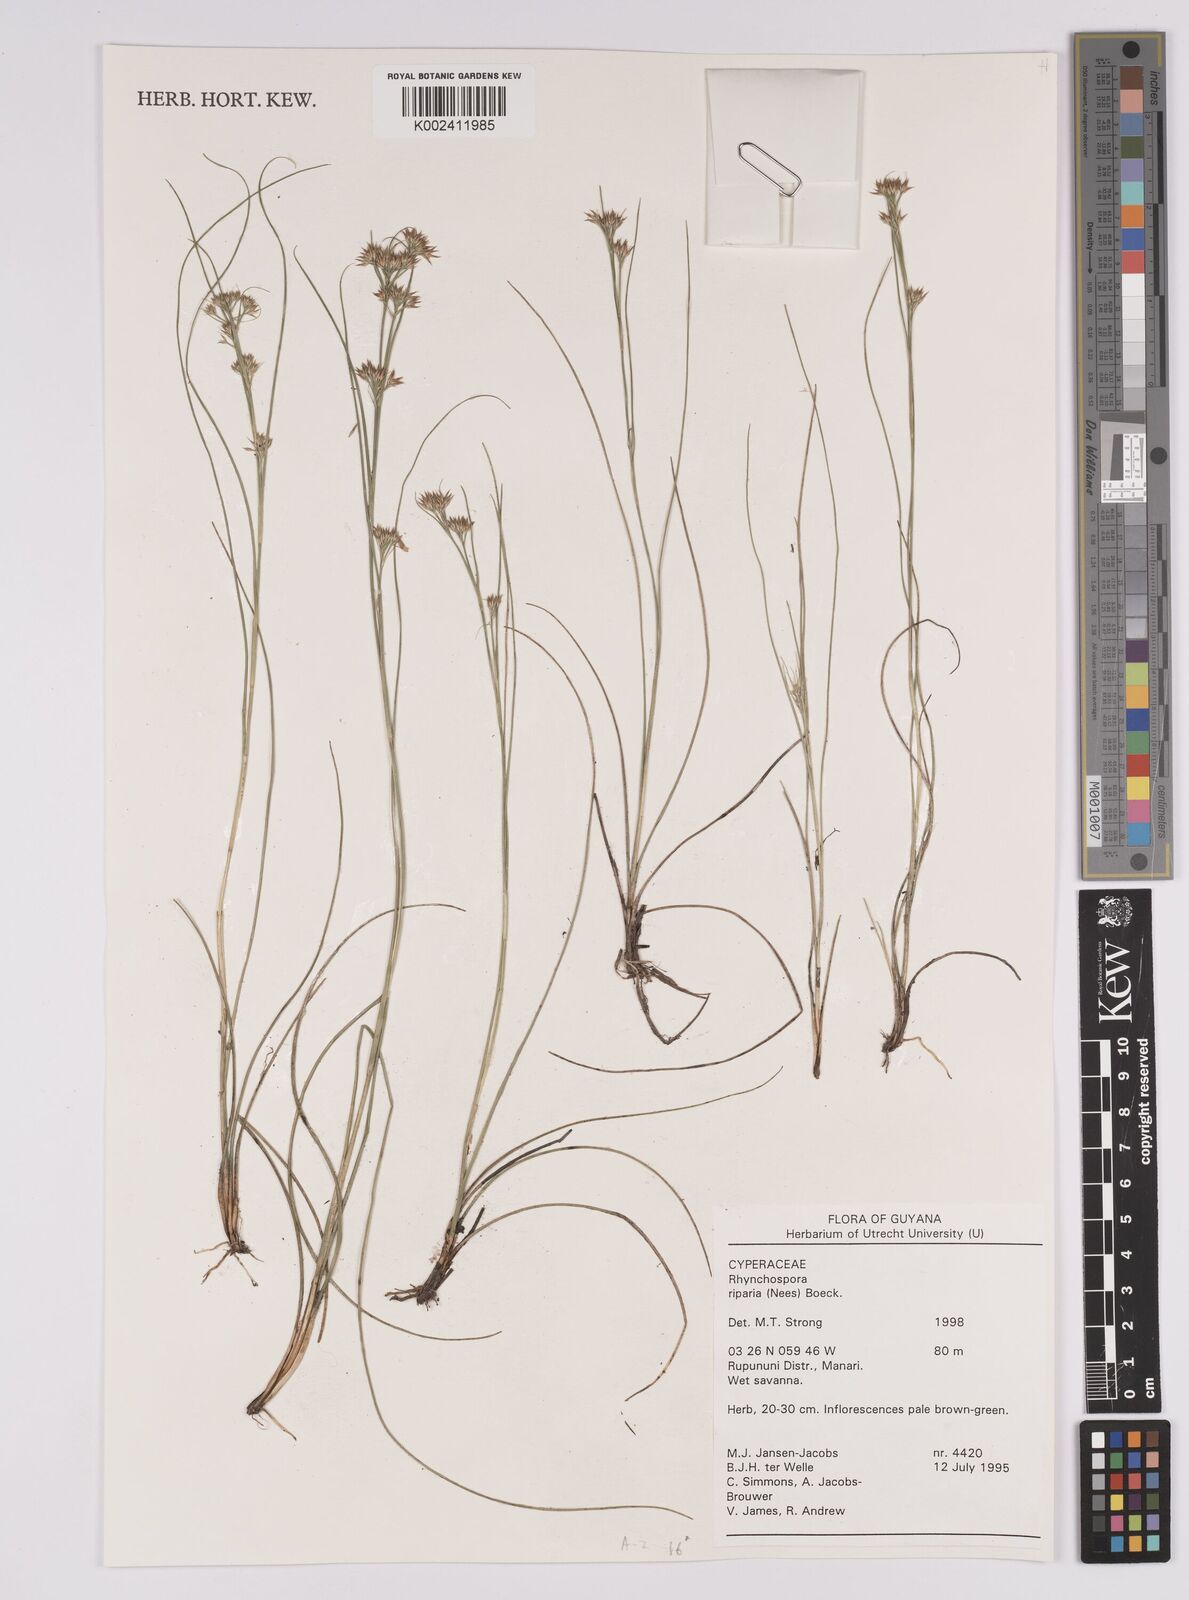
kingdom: Plantae
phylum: Tracheophyta
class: Liliopsida
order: Poales
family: Cyperaceae
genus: Rhynchospora
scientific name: Rhynchospora riparia
